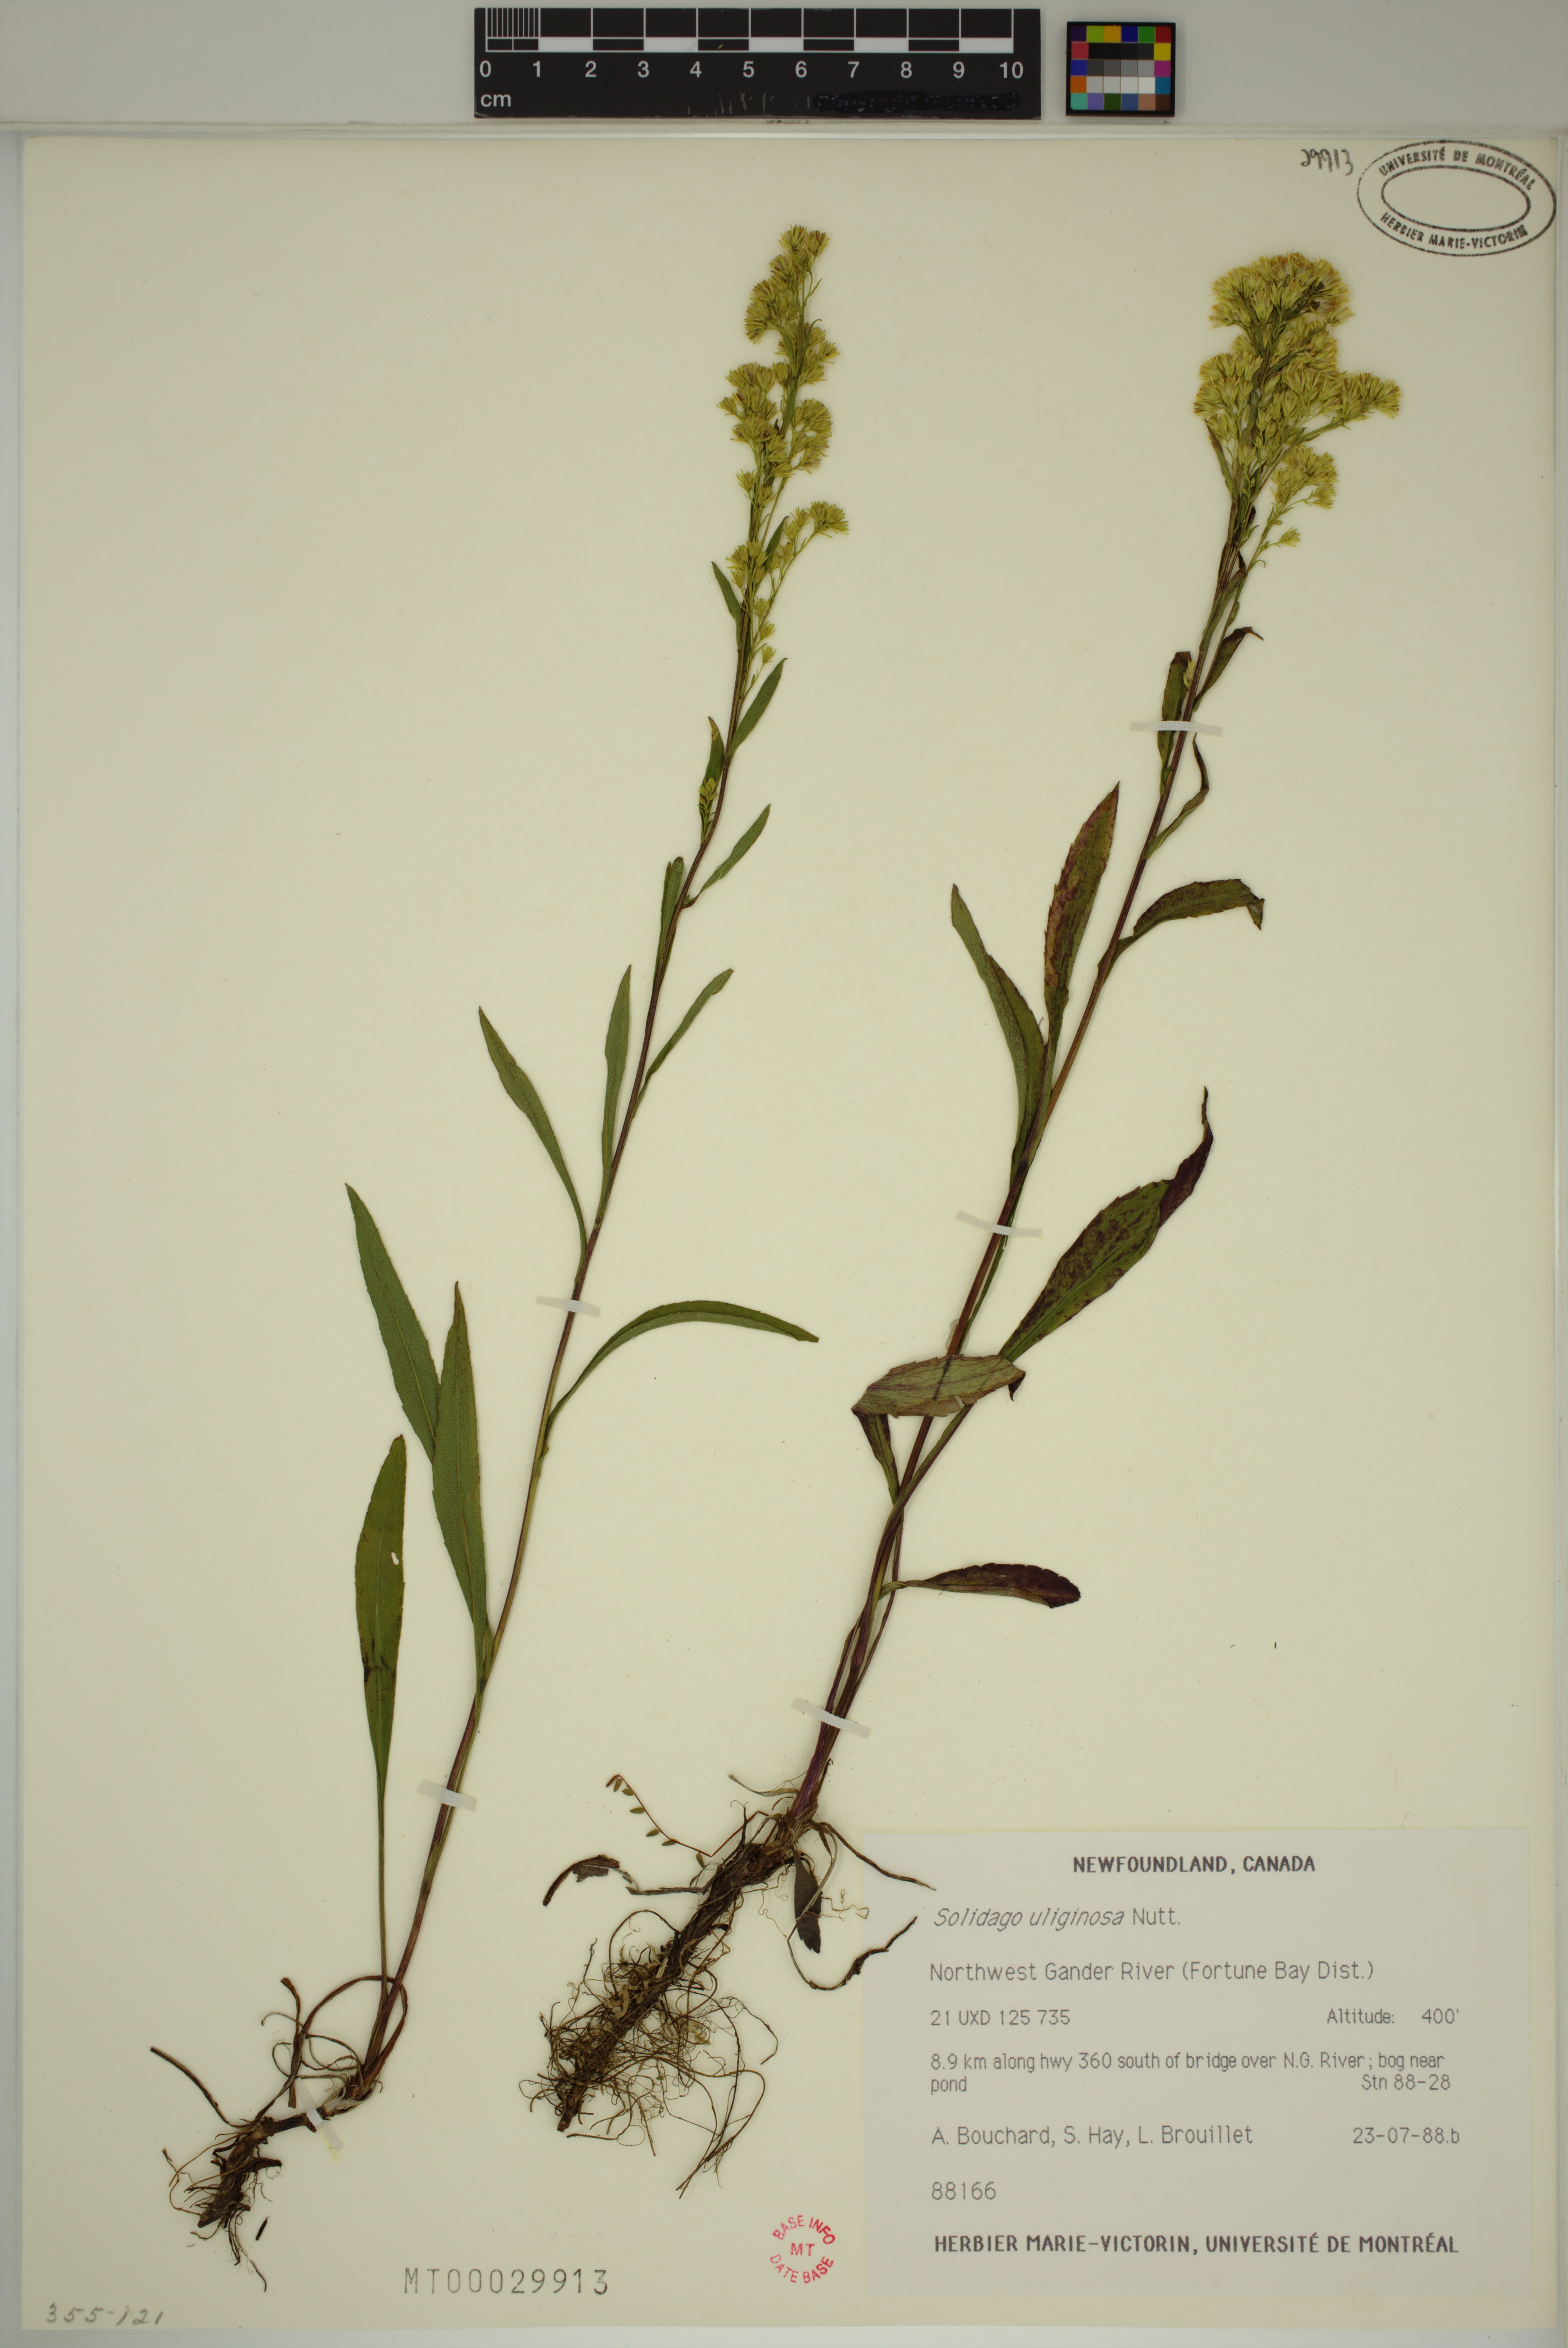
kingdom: Plantae
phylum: Tracheophyta
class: Magnoliopsida
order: Asterales
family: Asteraceae
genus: Solidago
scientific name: Solidago uliginosa
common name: Bog goldenrod
